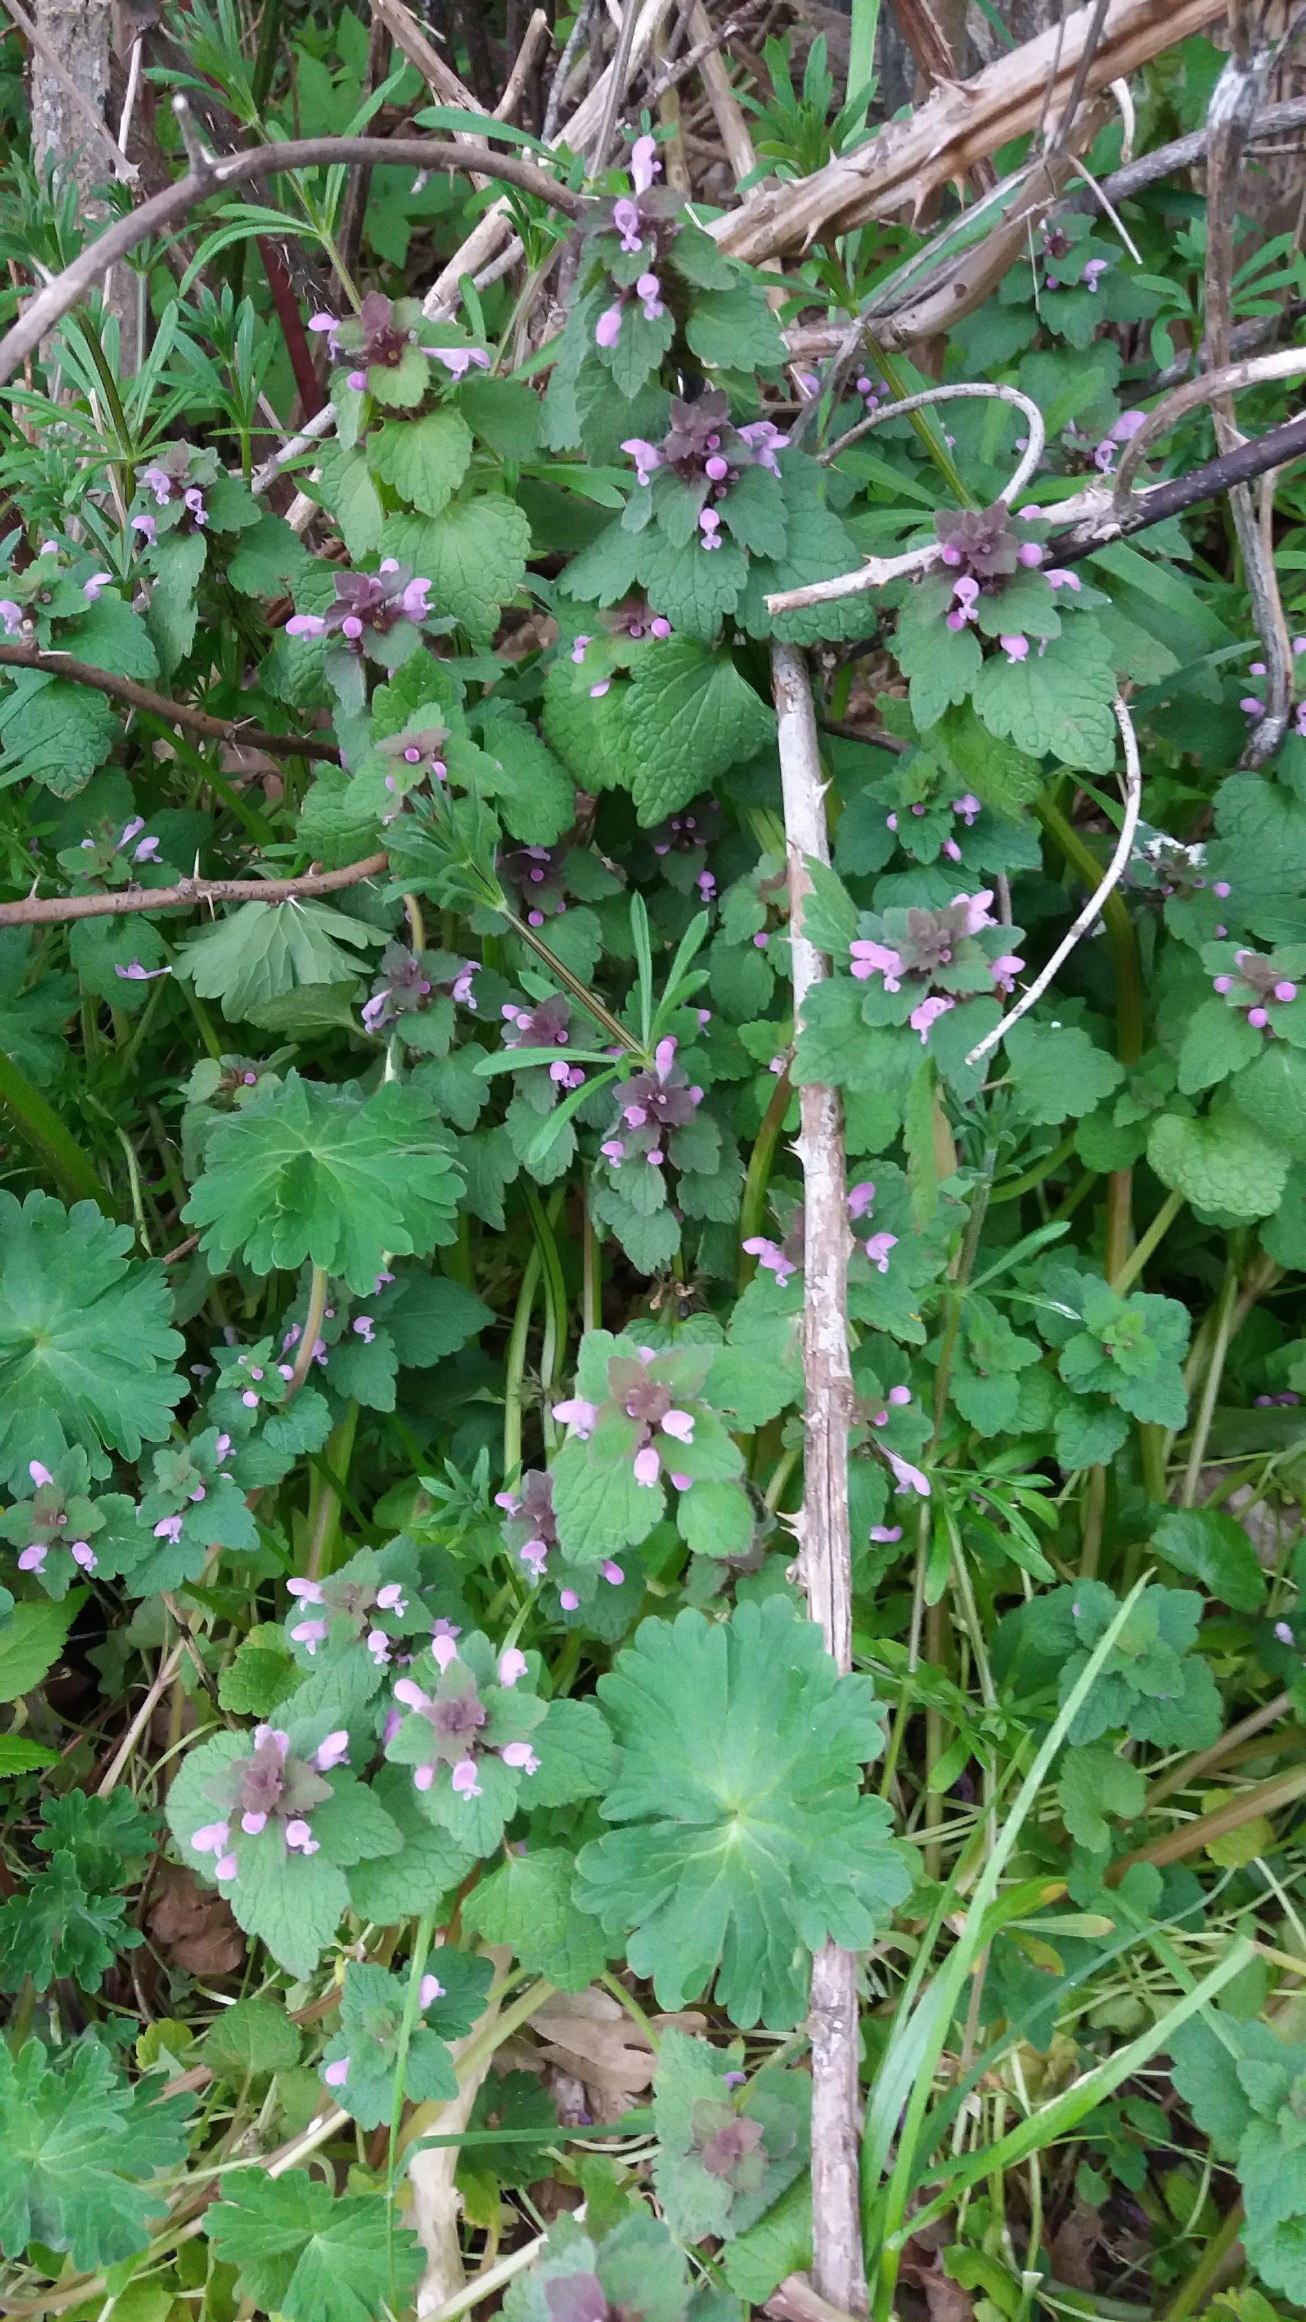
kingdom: Plantae
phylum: Tracheophyta
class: Magnoliopsida
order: Lamiales
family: Lamiaceae
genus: Lamium
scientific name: Lamium purpureum
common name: Rød tvetand
